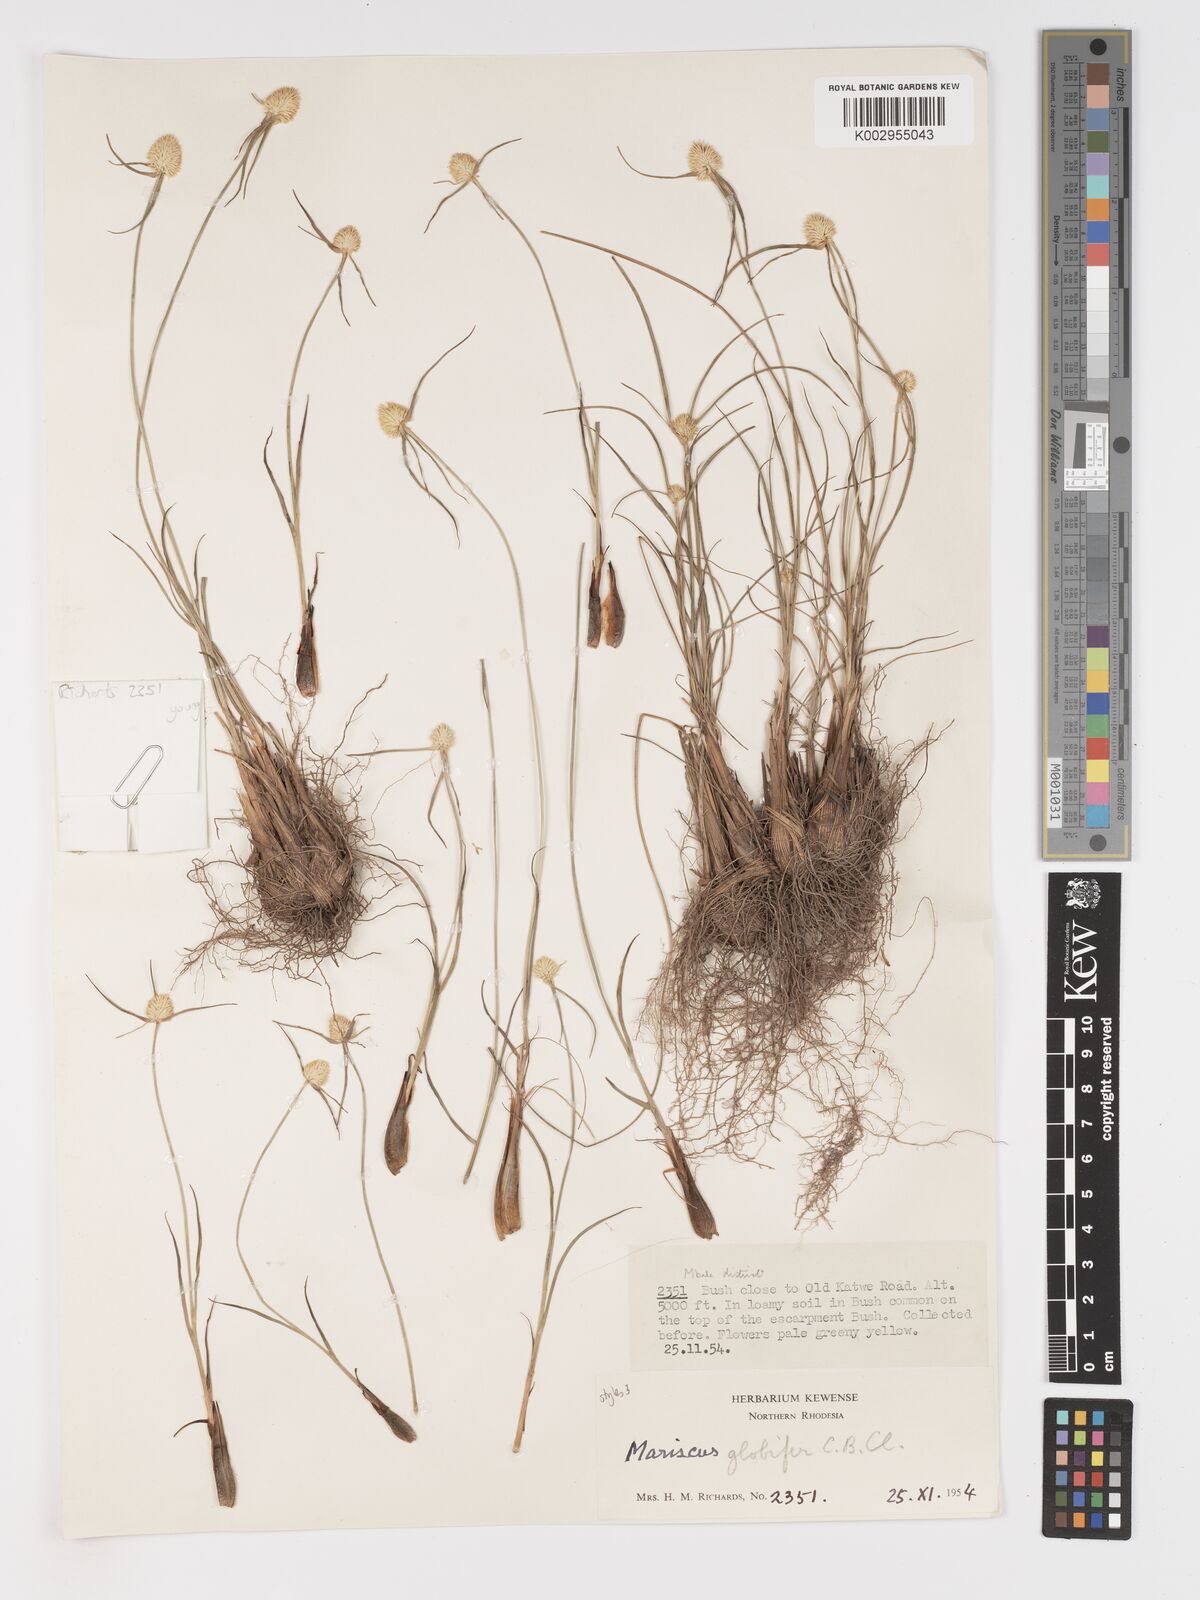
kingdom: Plantae
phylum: Tracheophyta
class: Liliopsida
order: Poales
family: Cyperaceae
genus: Cyperus
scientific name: Cyperus mollipes
